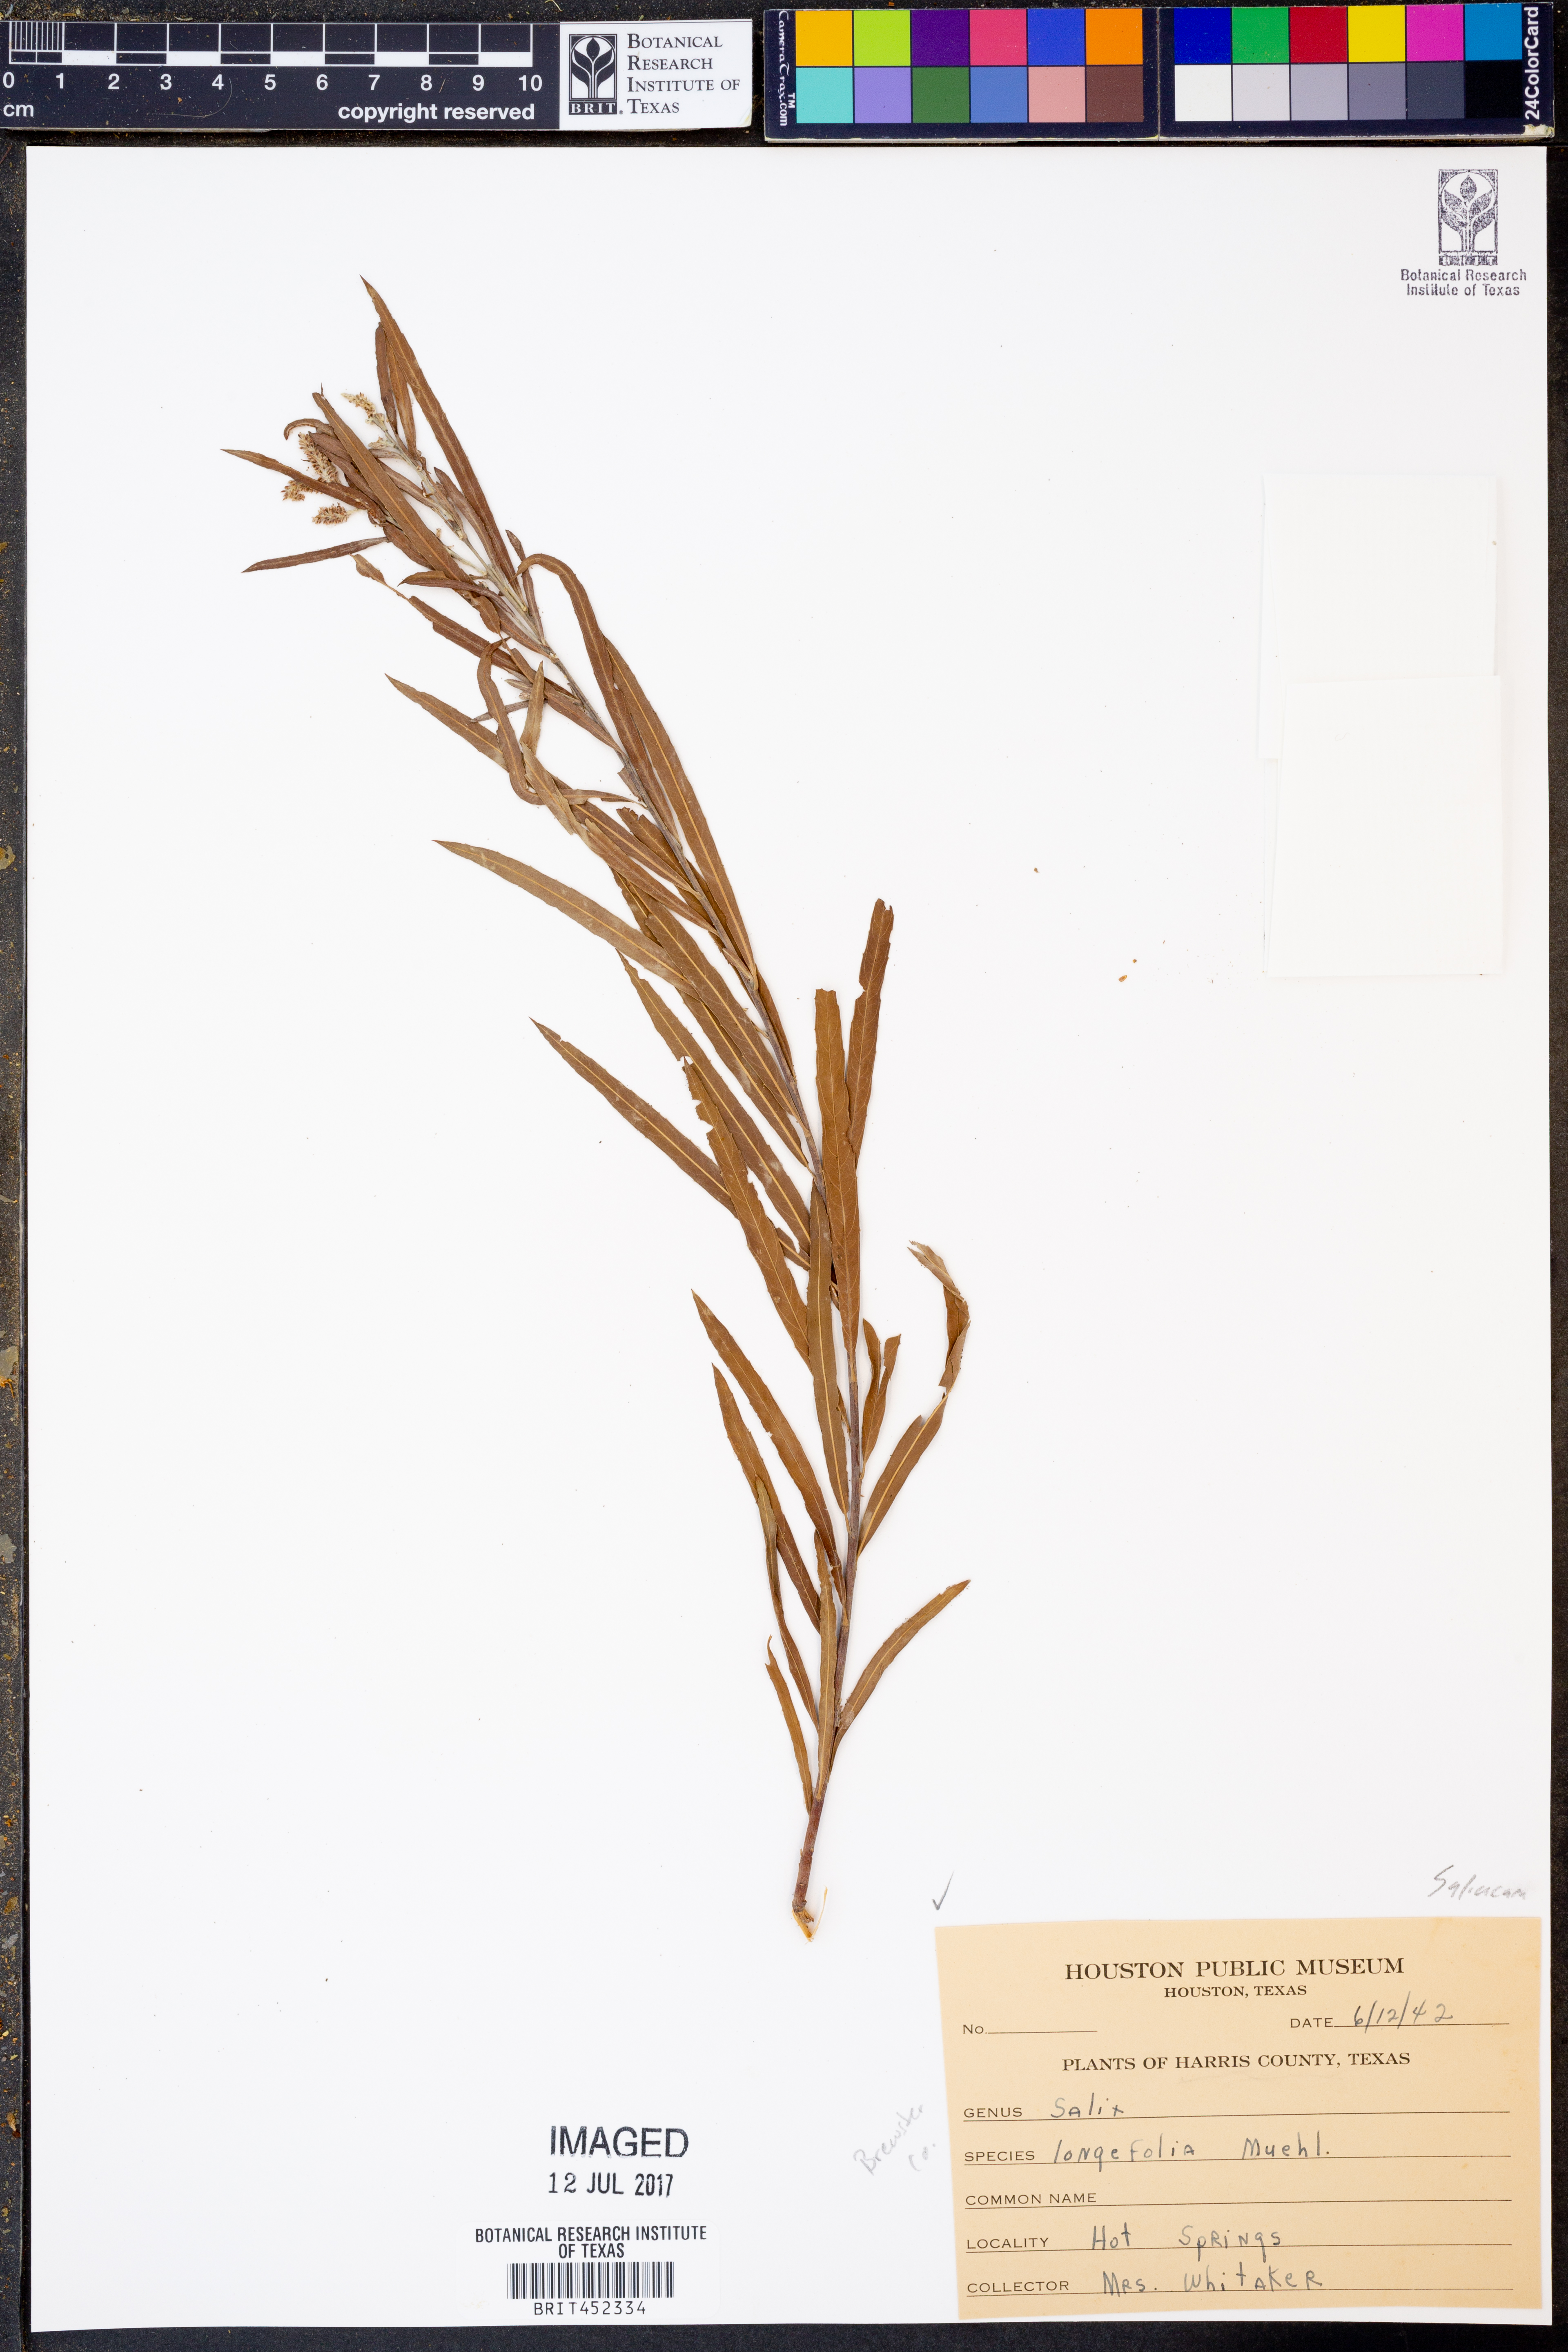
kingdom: Plantae
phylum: Tracheophyta
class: Magnoliopsida
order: Malpighiales
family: Salicaceae
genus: Salix
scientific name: Salix interior
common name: Sandbar willow
